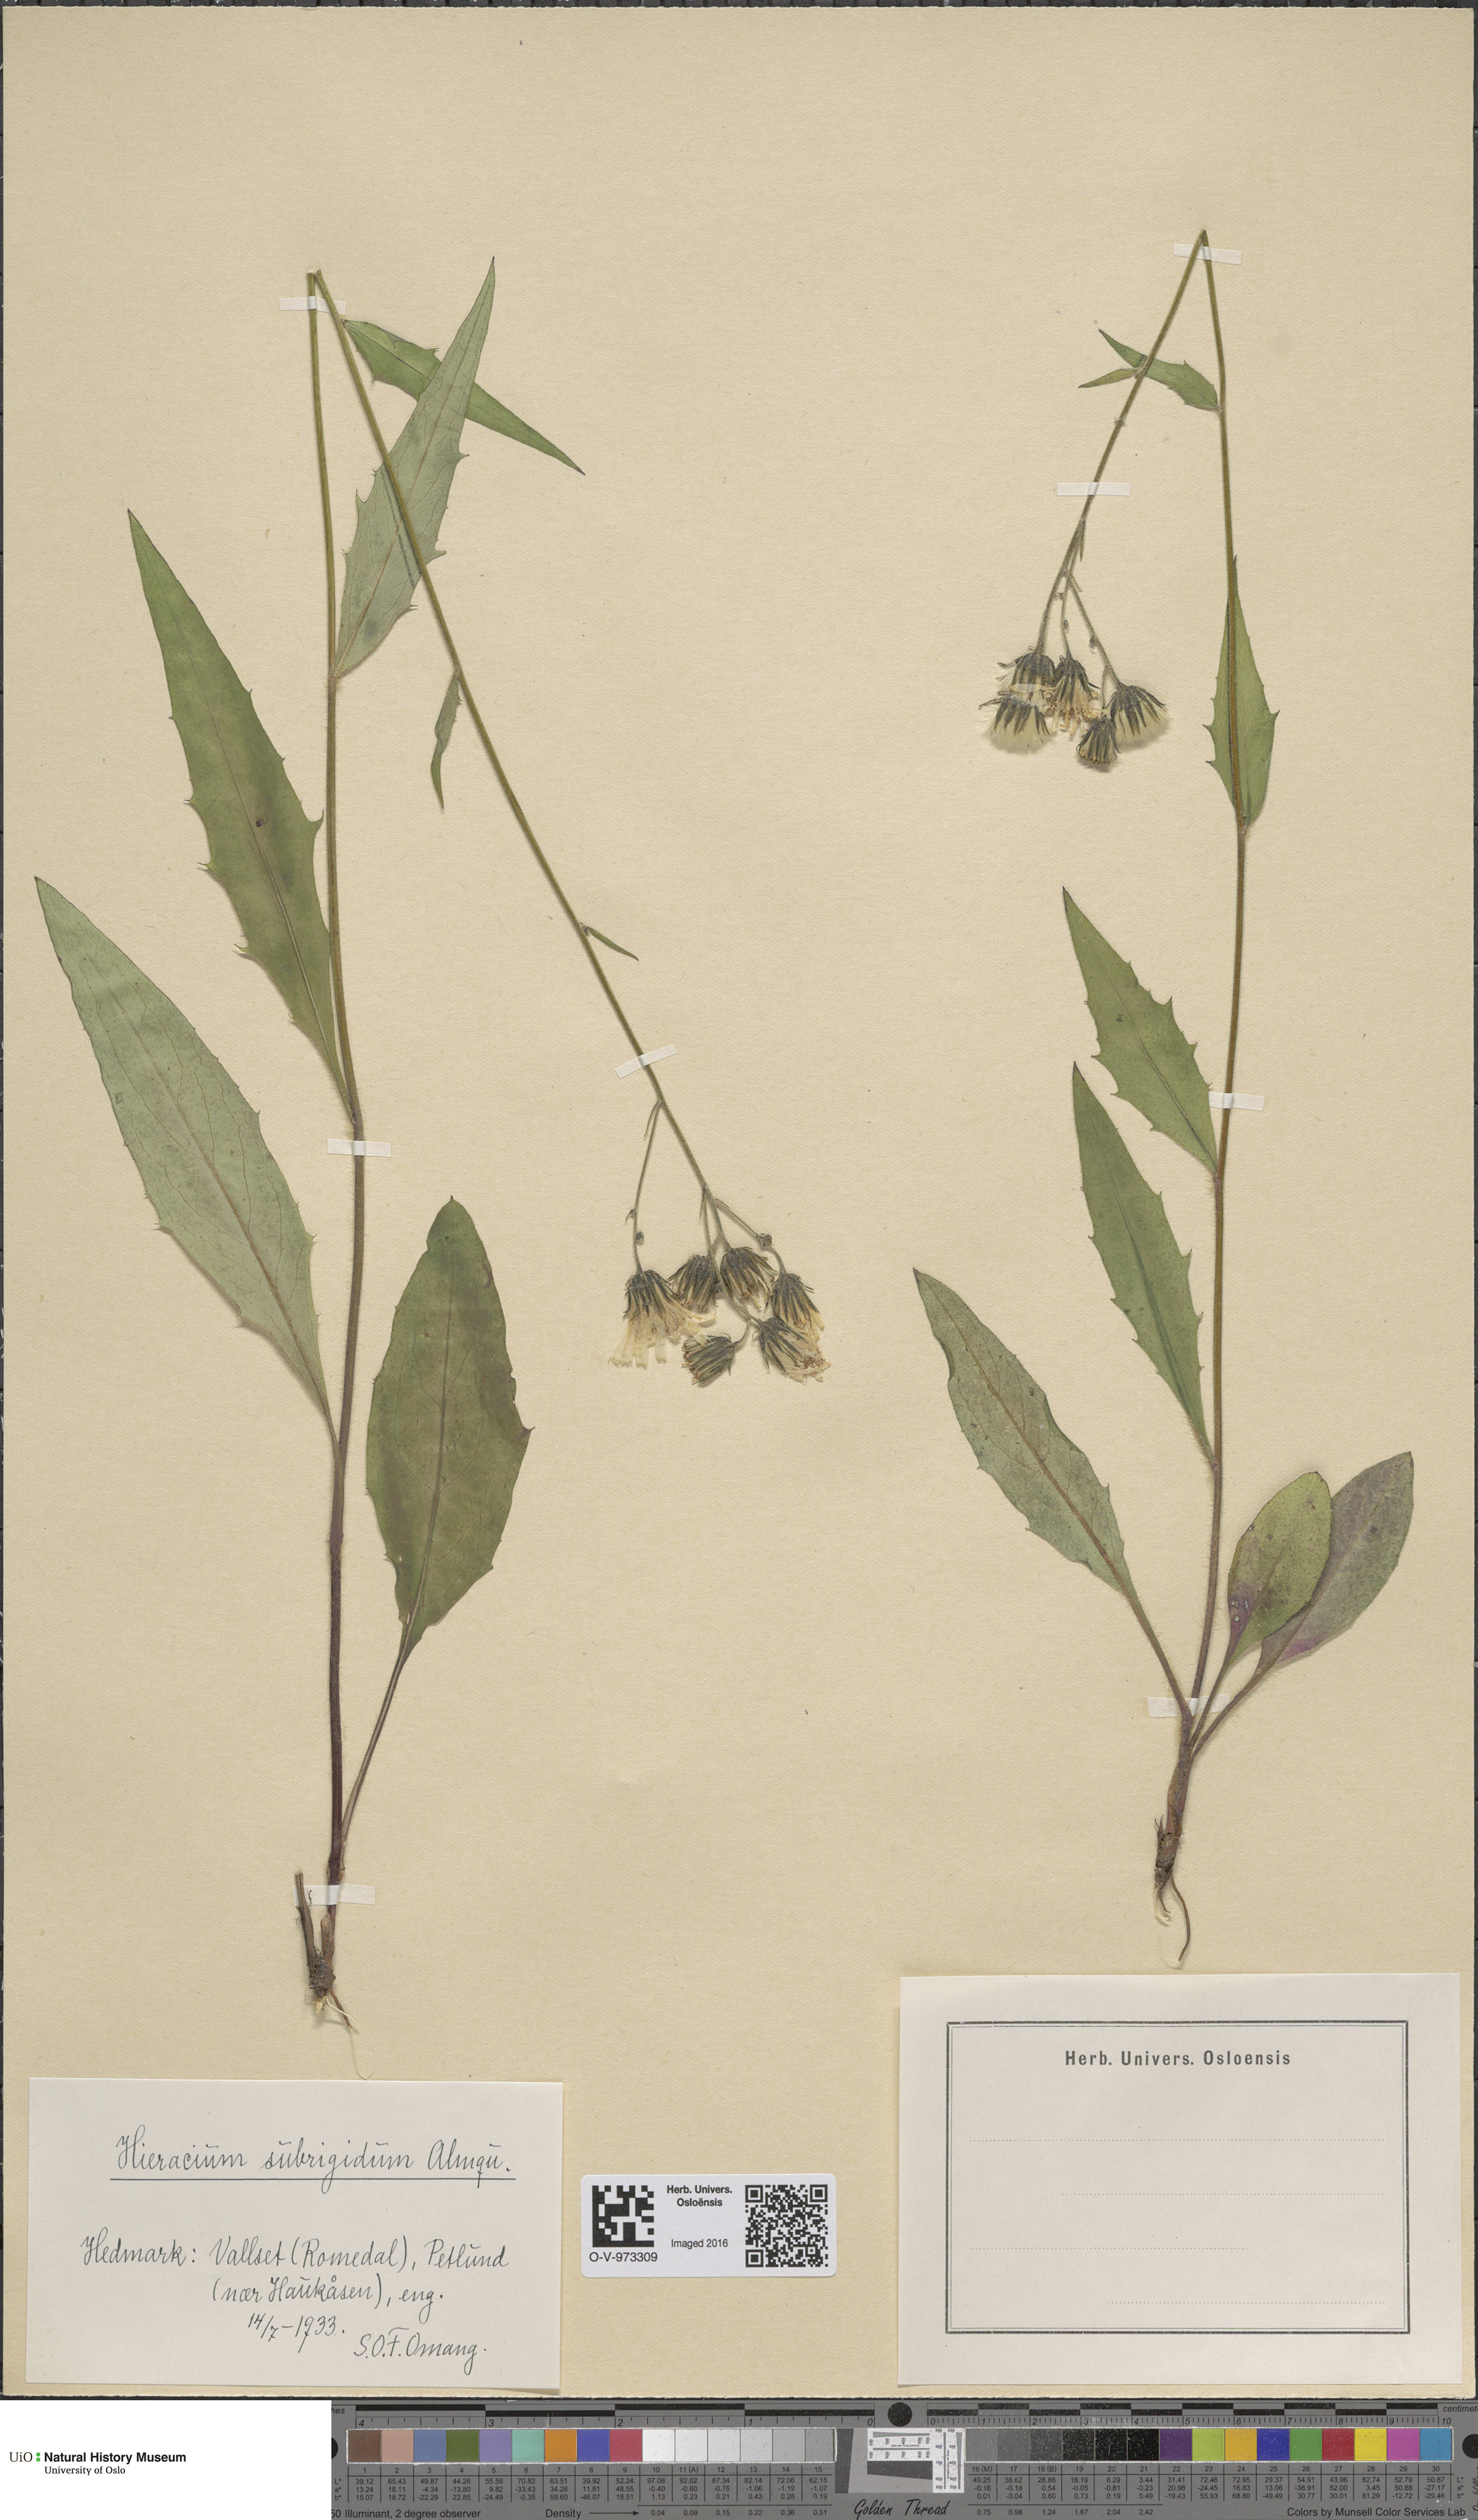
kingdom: Plantae
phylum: Tracheophyta
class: Magnoliopsida
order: Asterales
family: Asteraceae
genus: Hieracium
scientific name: Hieracium subrigidum
